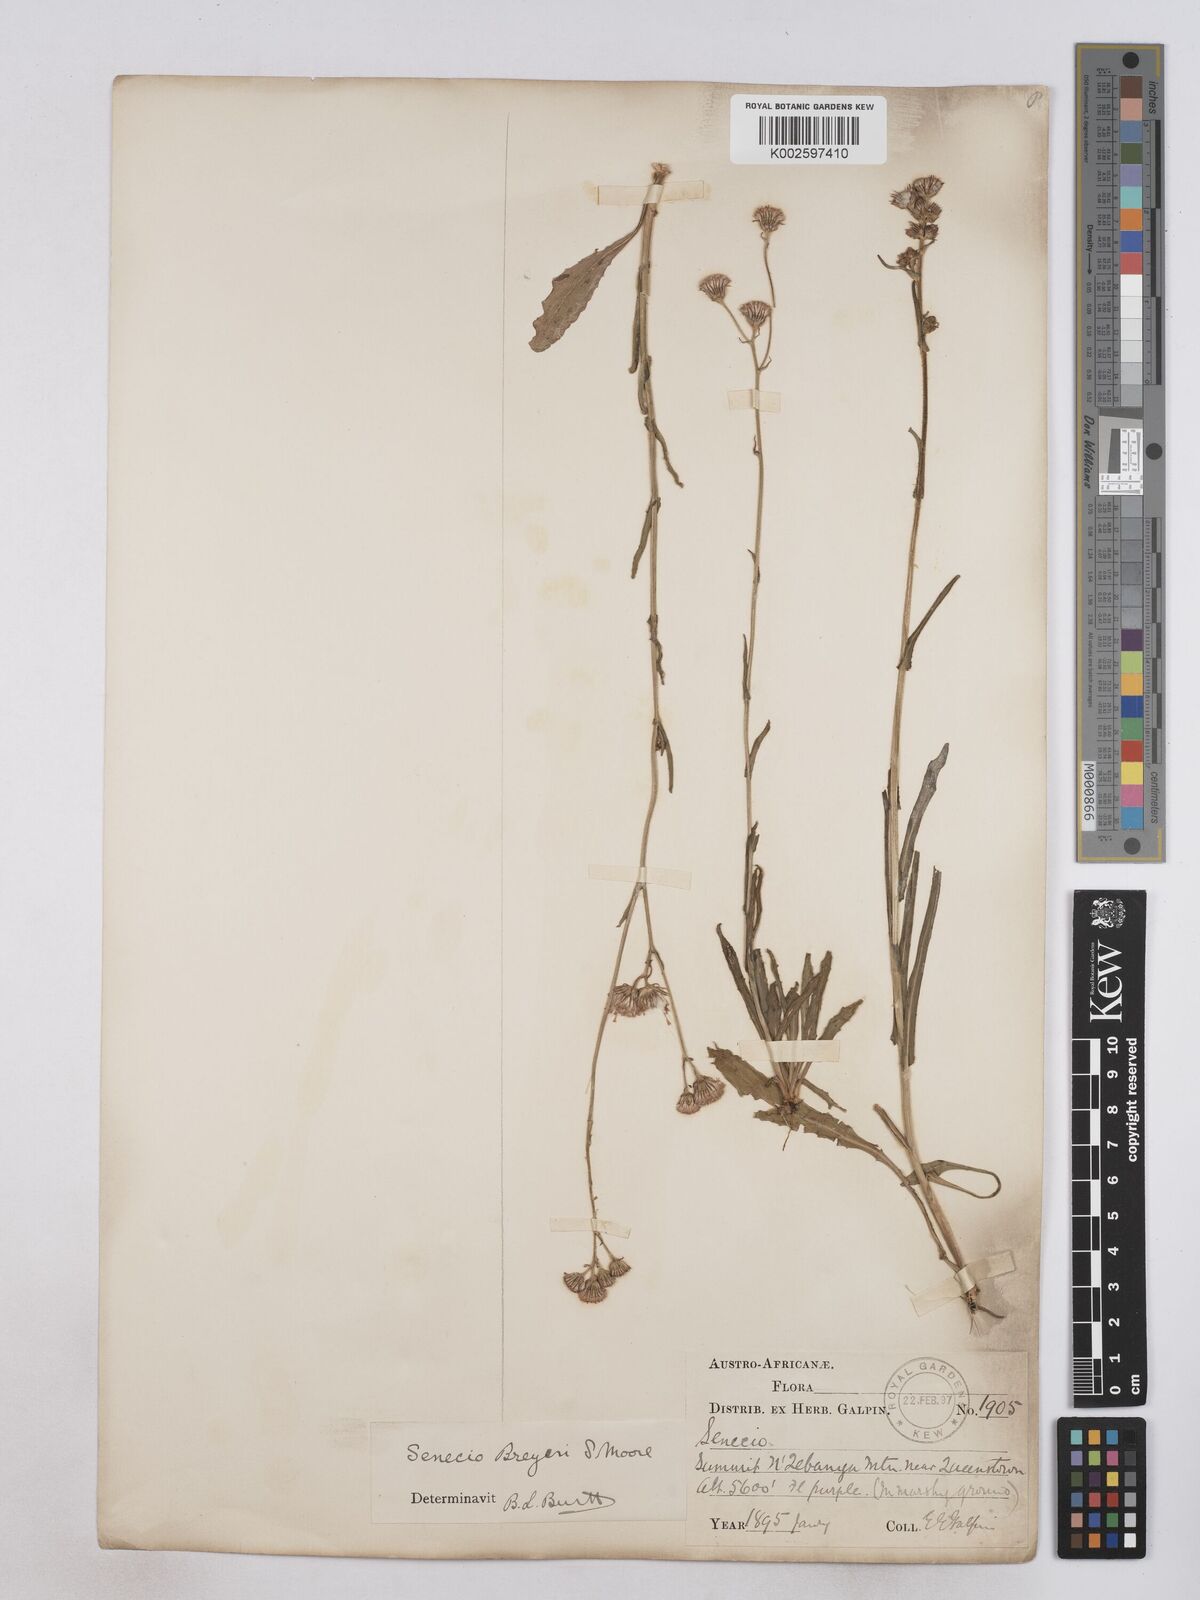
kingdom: Plantae
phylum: Tracheophyta
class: Magnoliopsida
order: Asterales
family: Asteraceae
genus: Senecio
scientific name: Senecio polyodon
